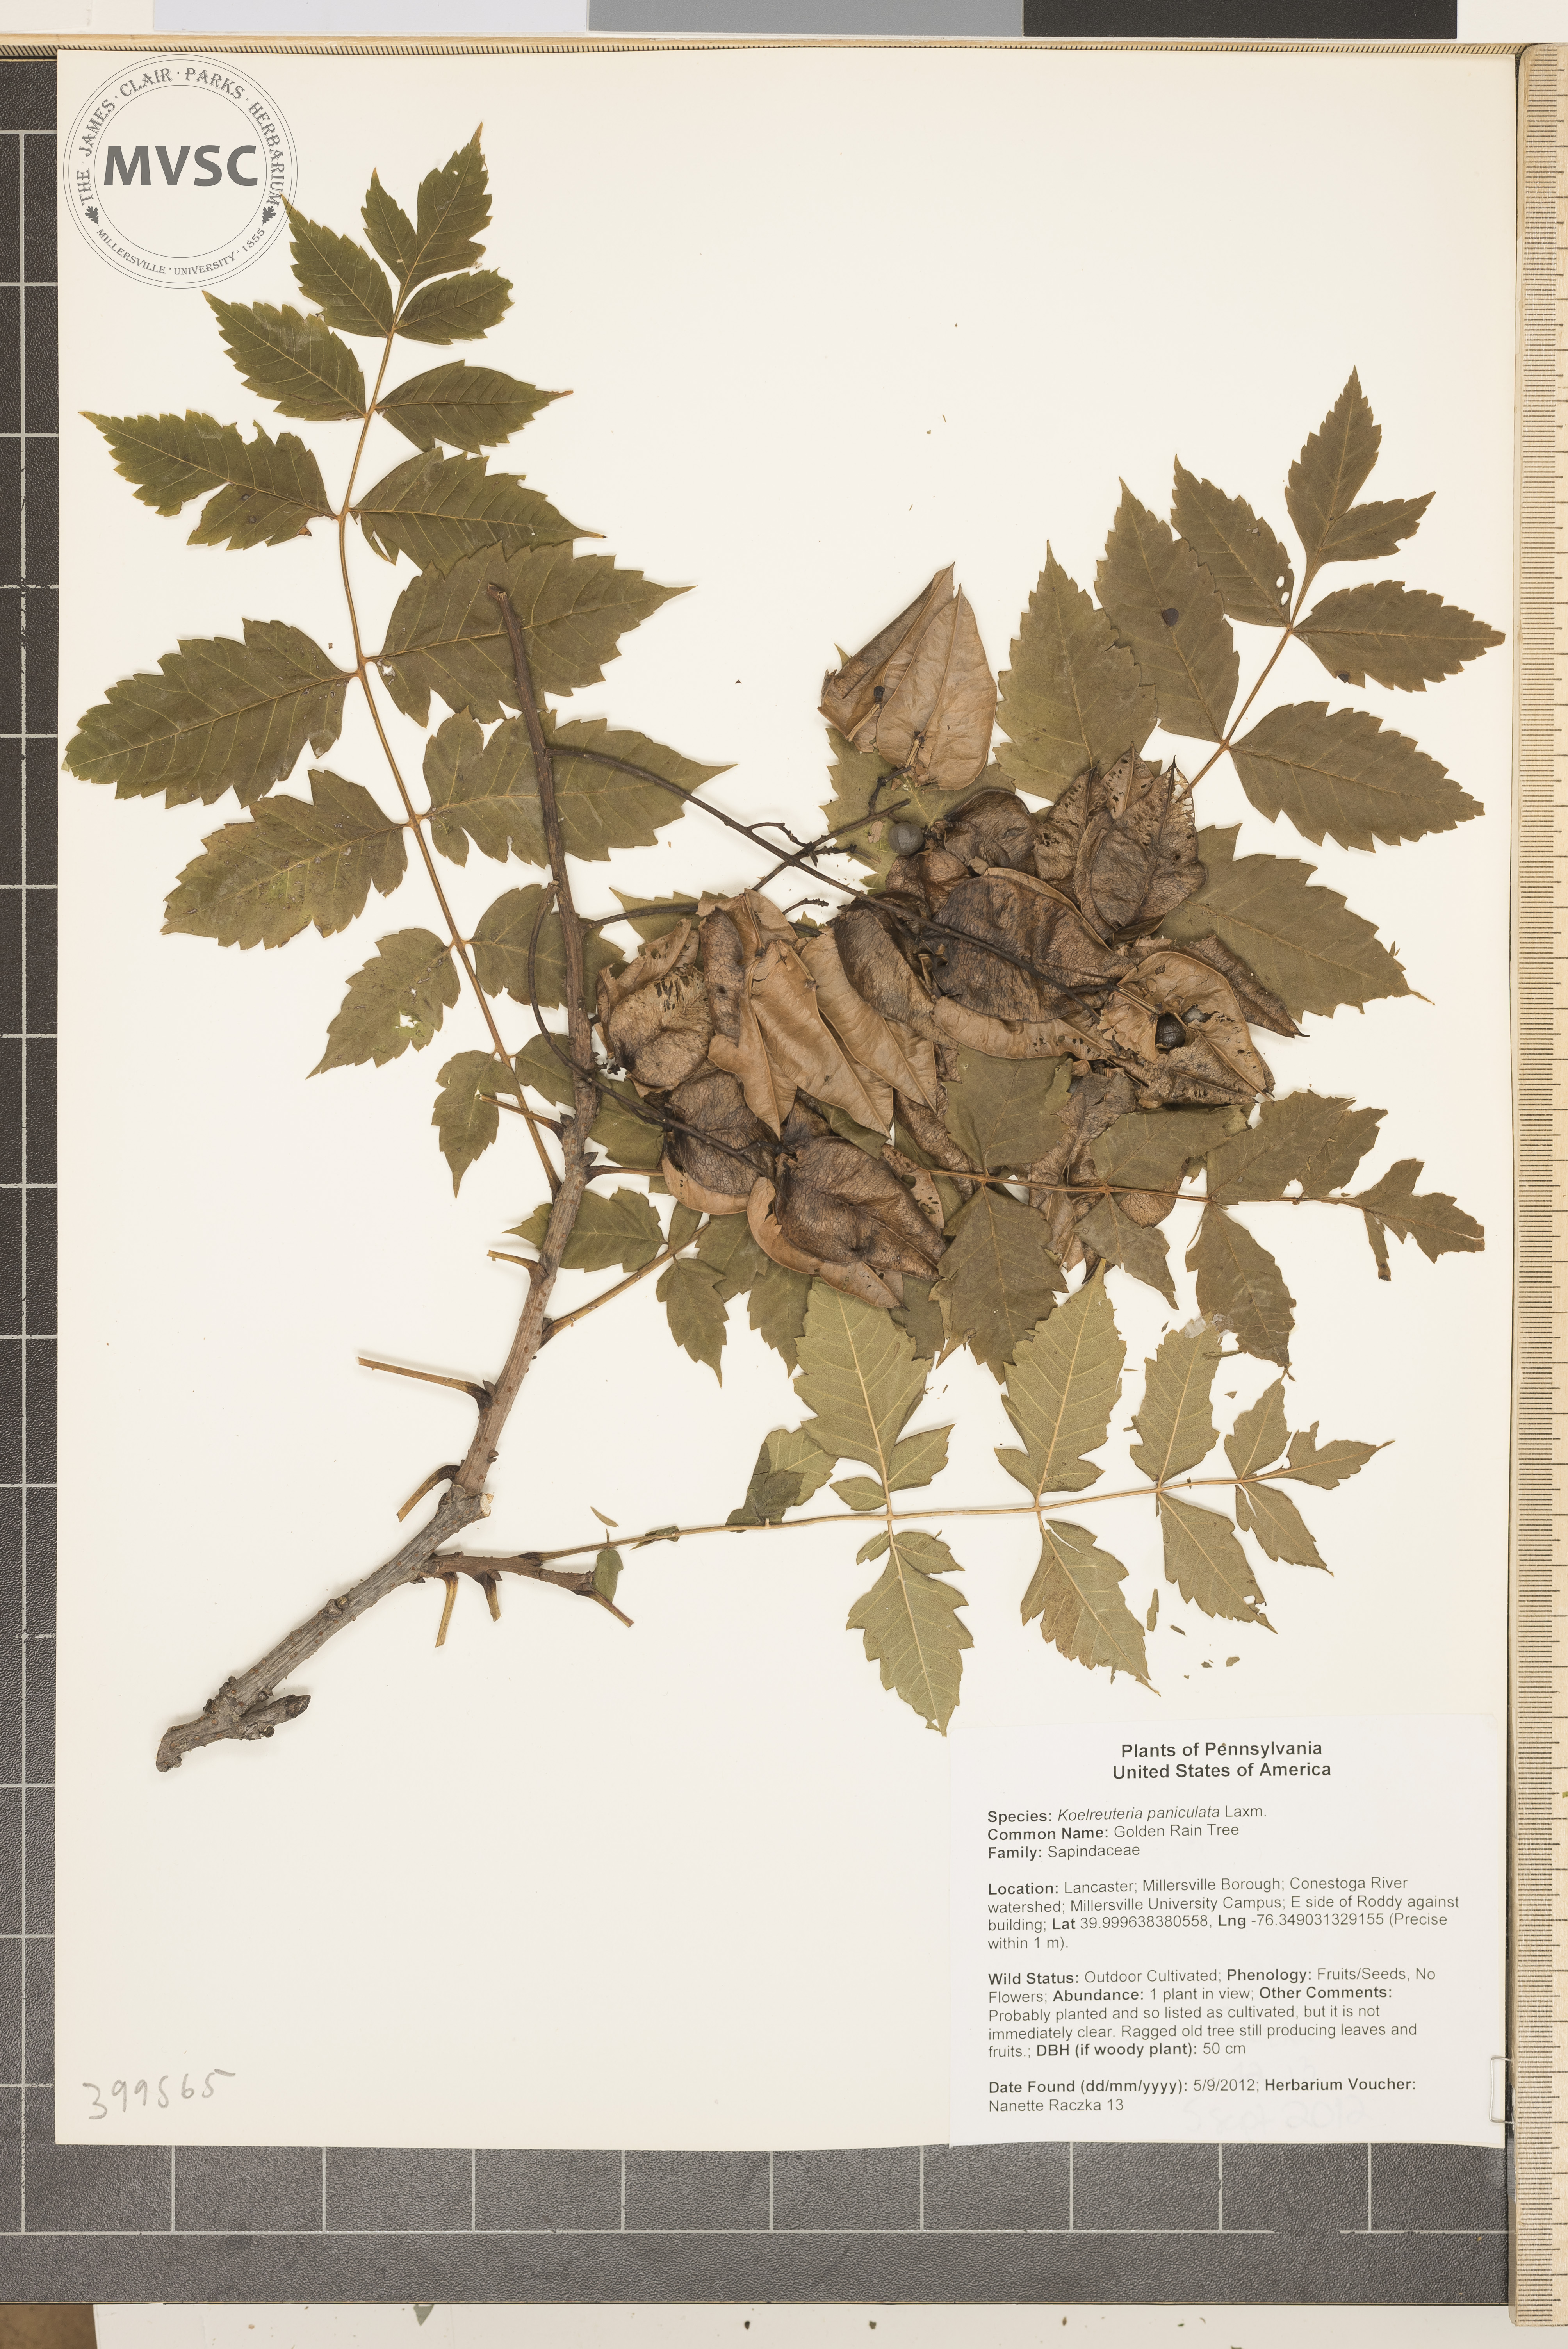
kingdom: Plantae
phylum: Tracheophyta
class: Magnoliopsida
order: Sapindales
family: Sapindaceae
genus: Koelreuteria
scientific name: Koelreuteria paniculata
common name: Golden Rain Tree
